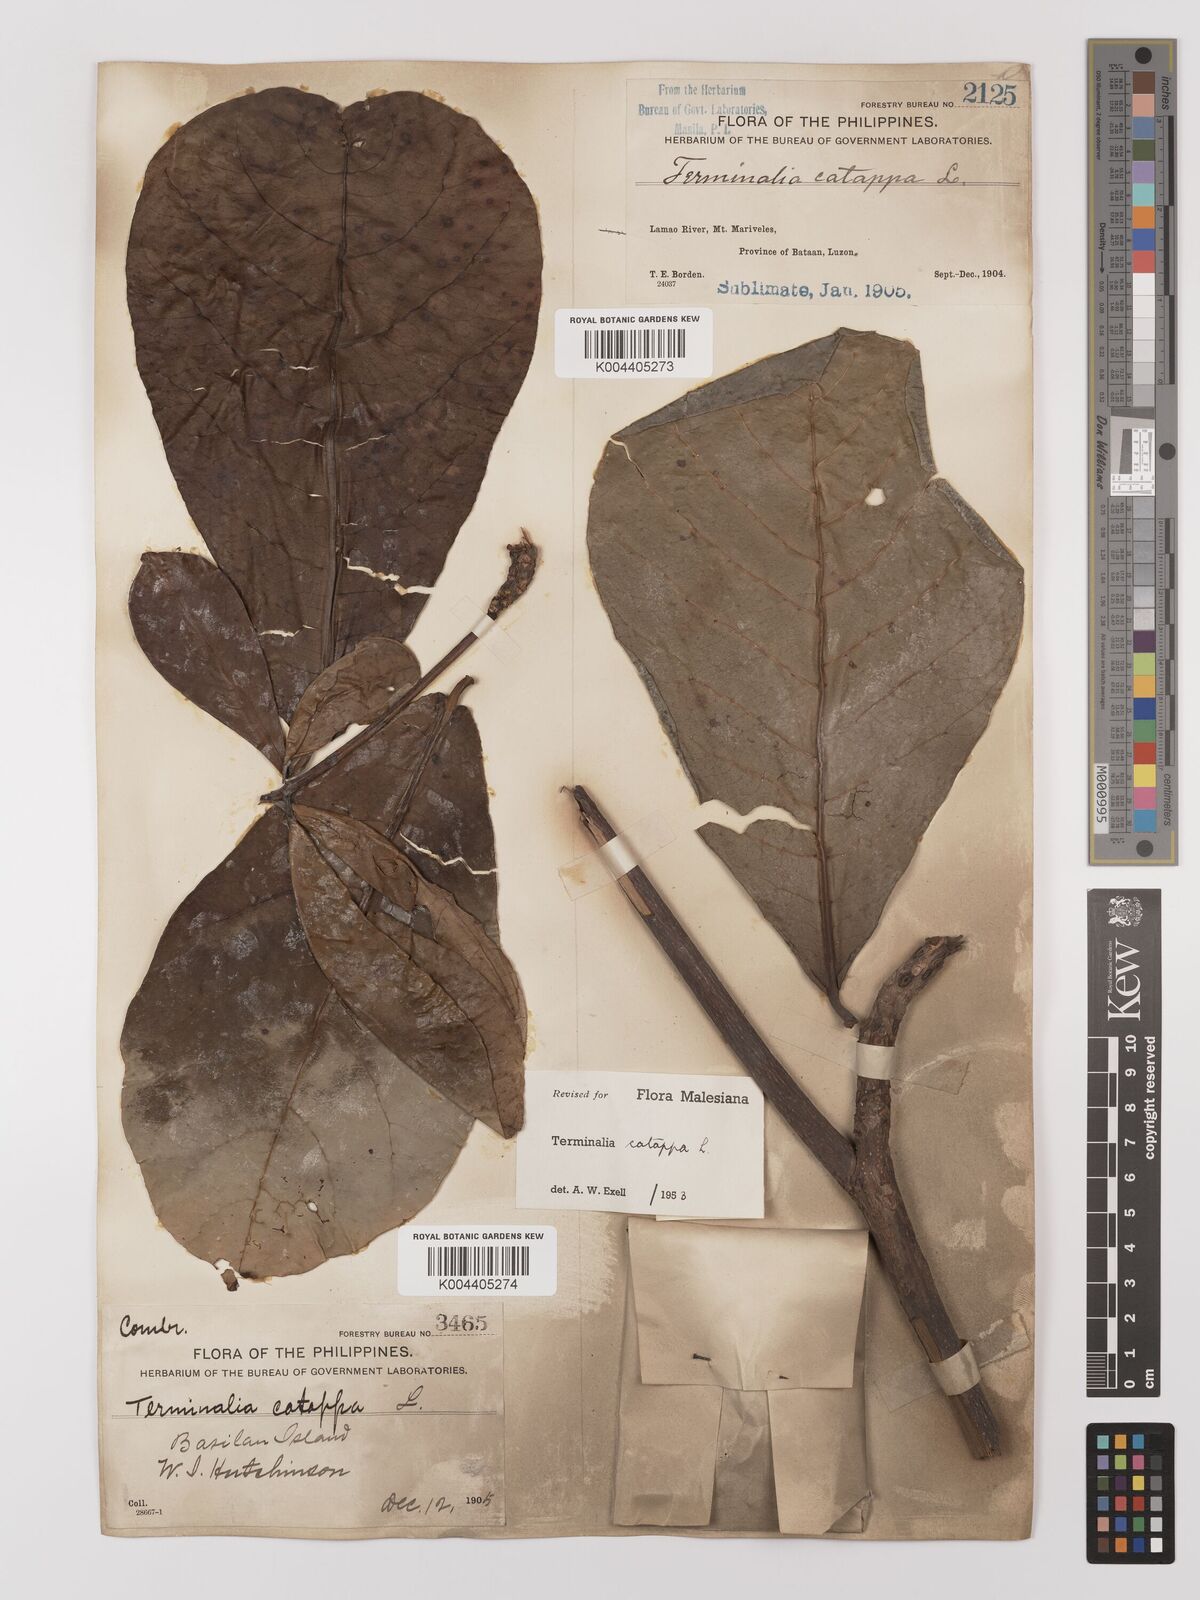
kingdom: Plantae
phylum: Tracheophyta
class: Magnoliopsida
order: Myrtales
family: Combretaceae
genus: Terminalia
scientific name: Terminalia catappa
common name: Tropical almond
